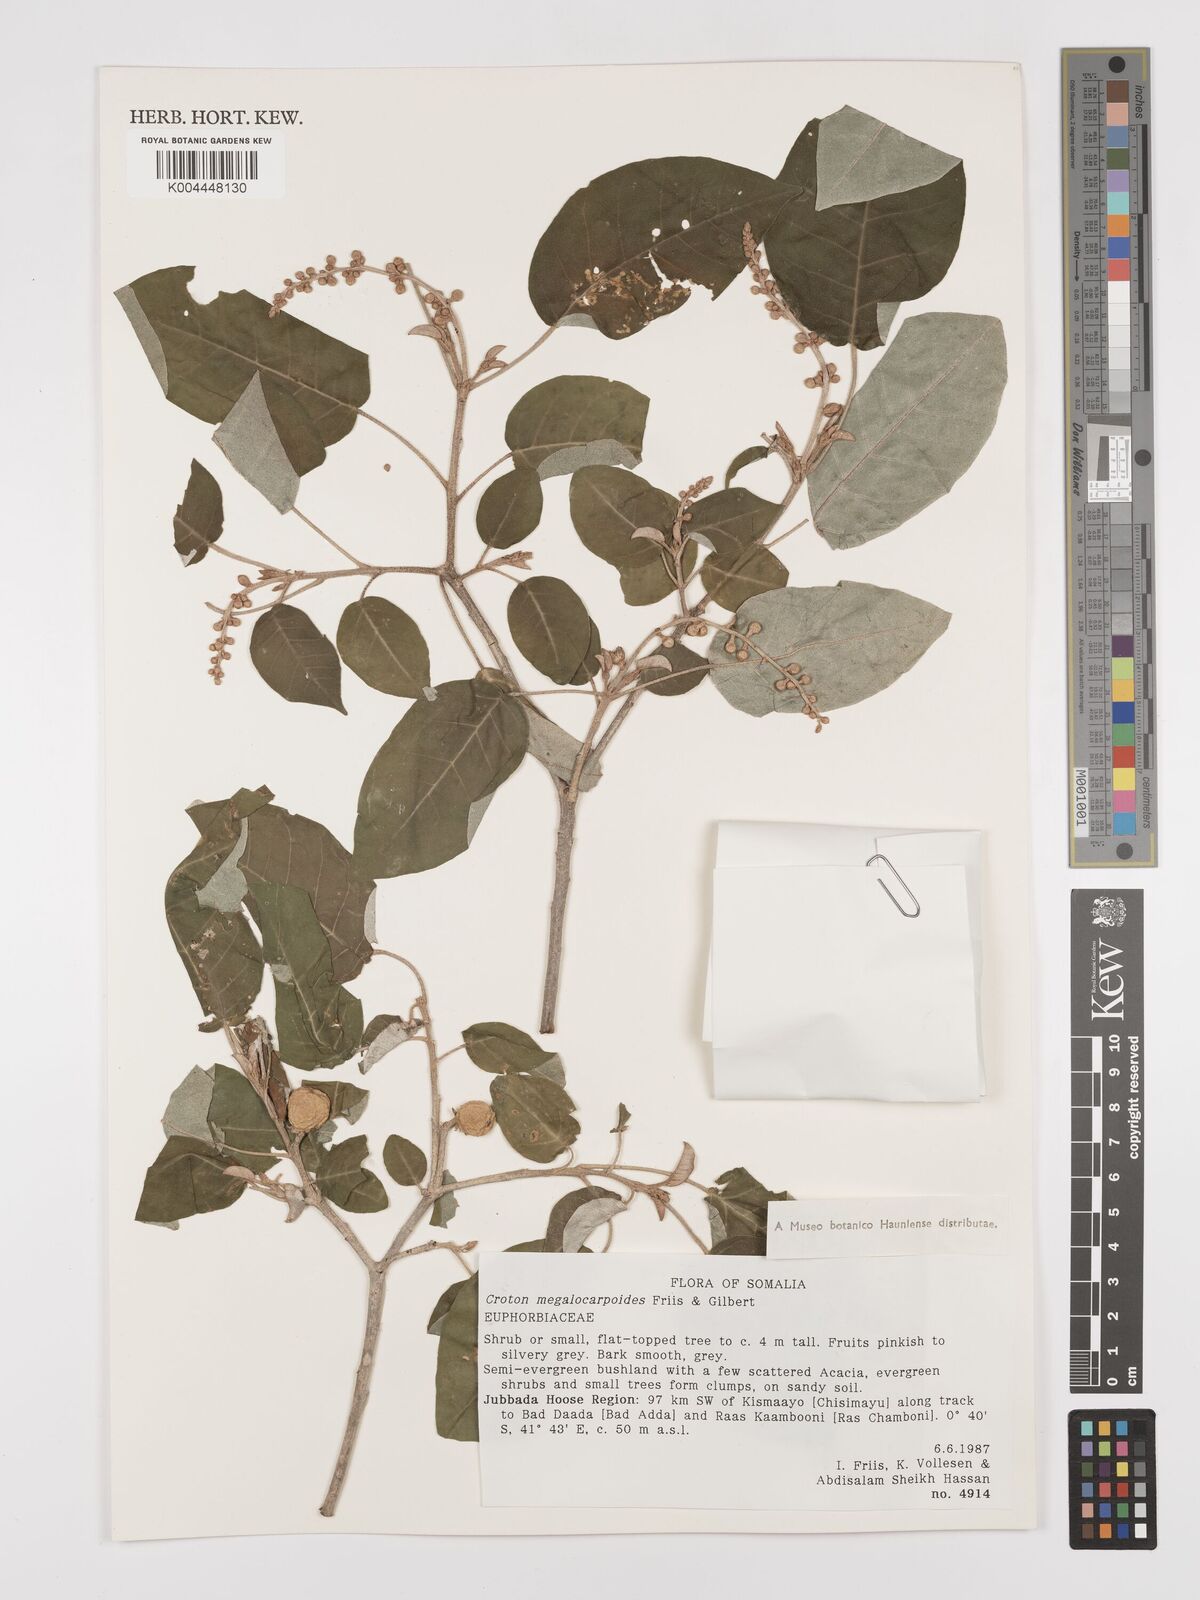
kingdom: Plantae
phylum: Tracheophyta
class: Magnoliopsida
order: Malpighiales
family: Euphorbiaceae
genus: Croton
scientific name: Croton megalocarpoides
